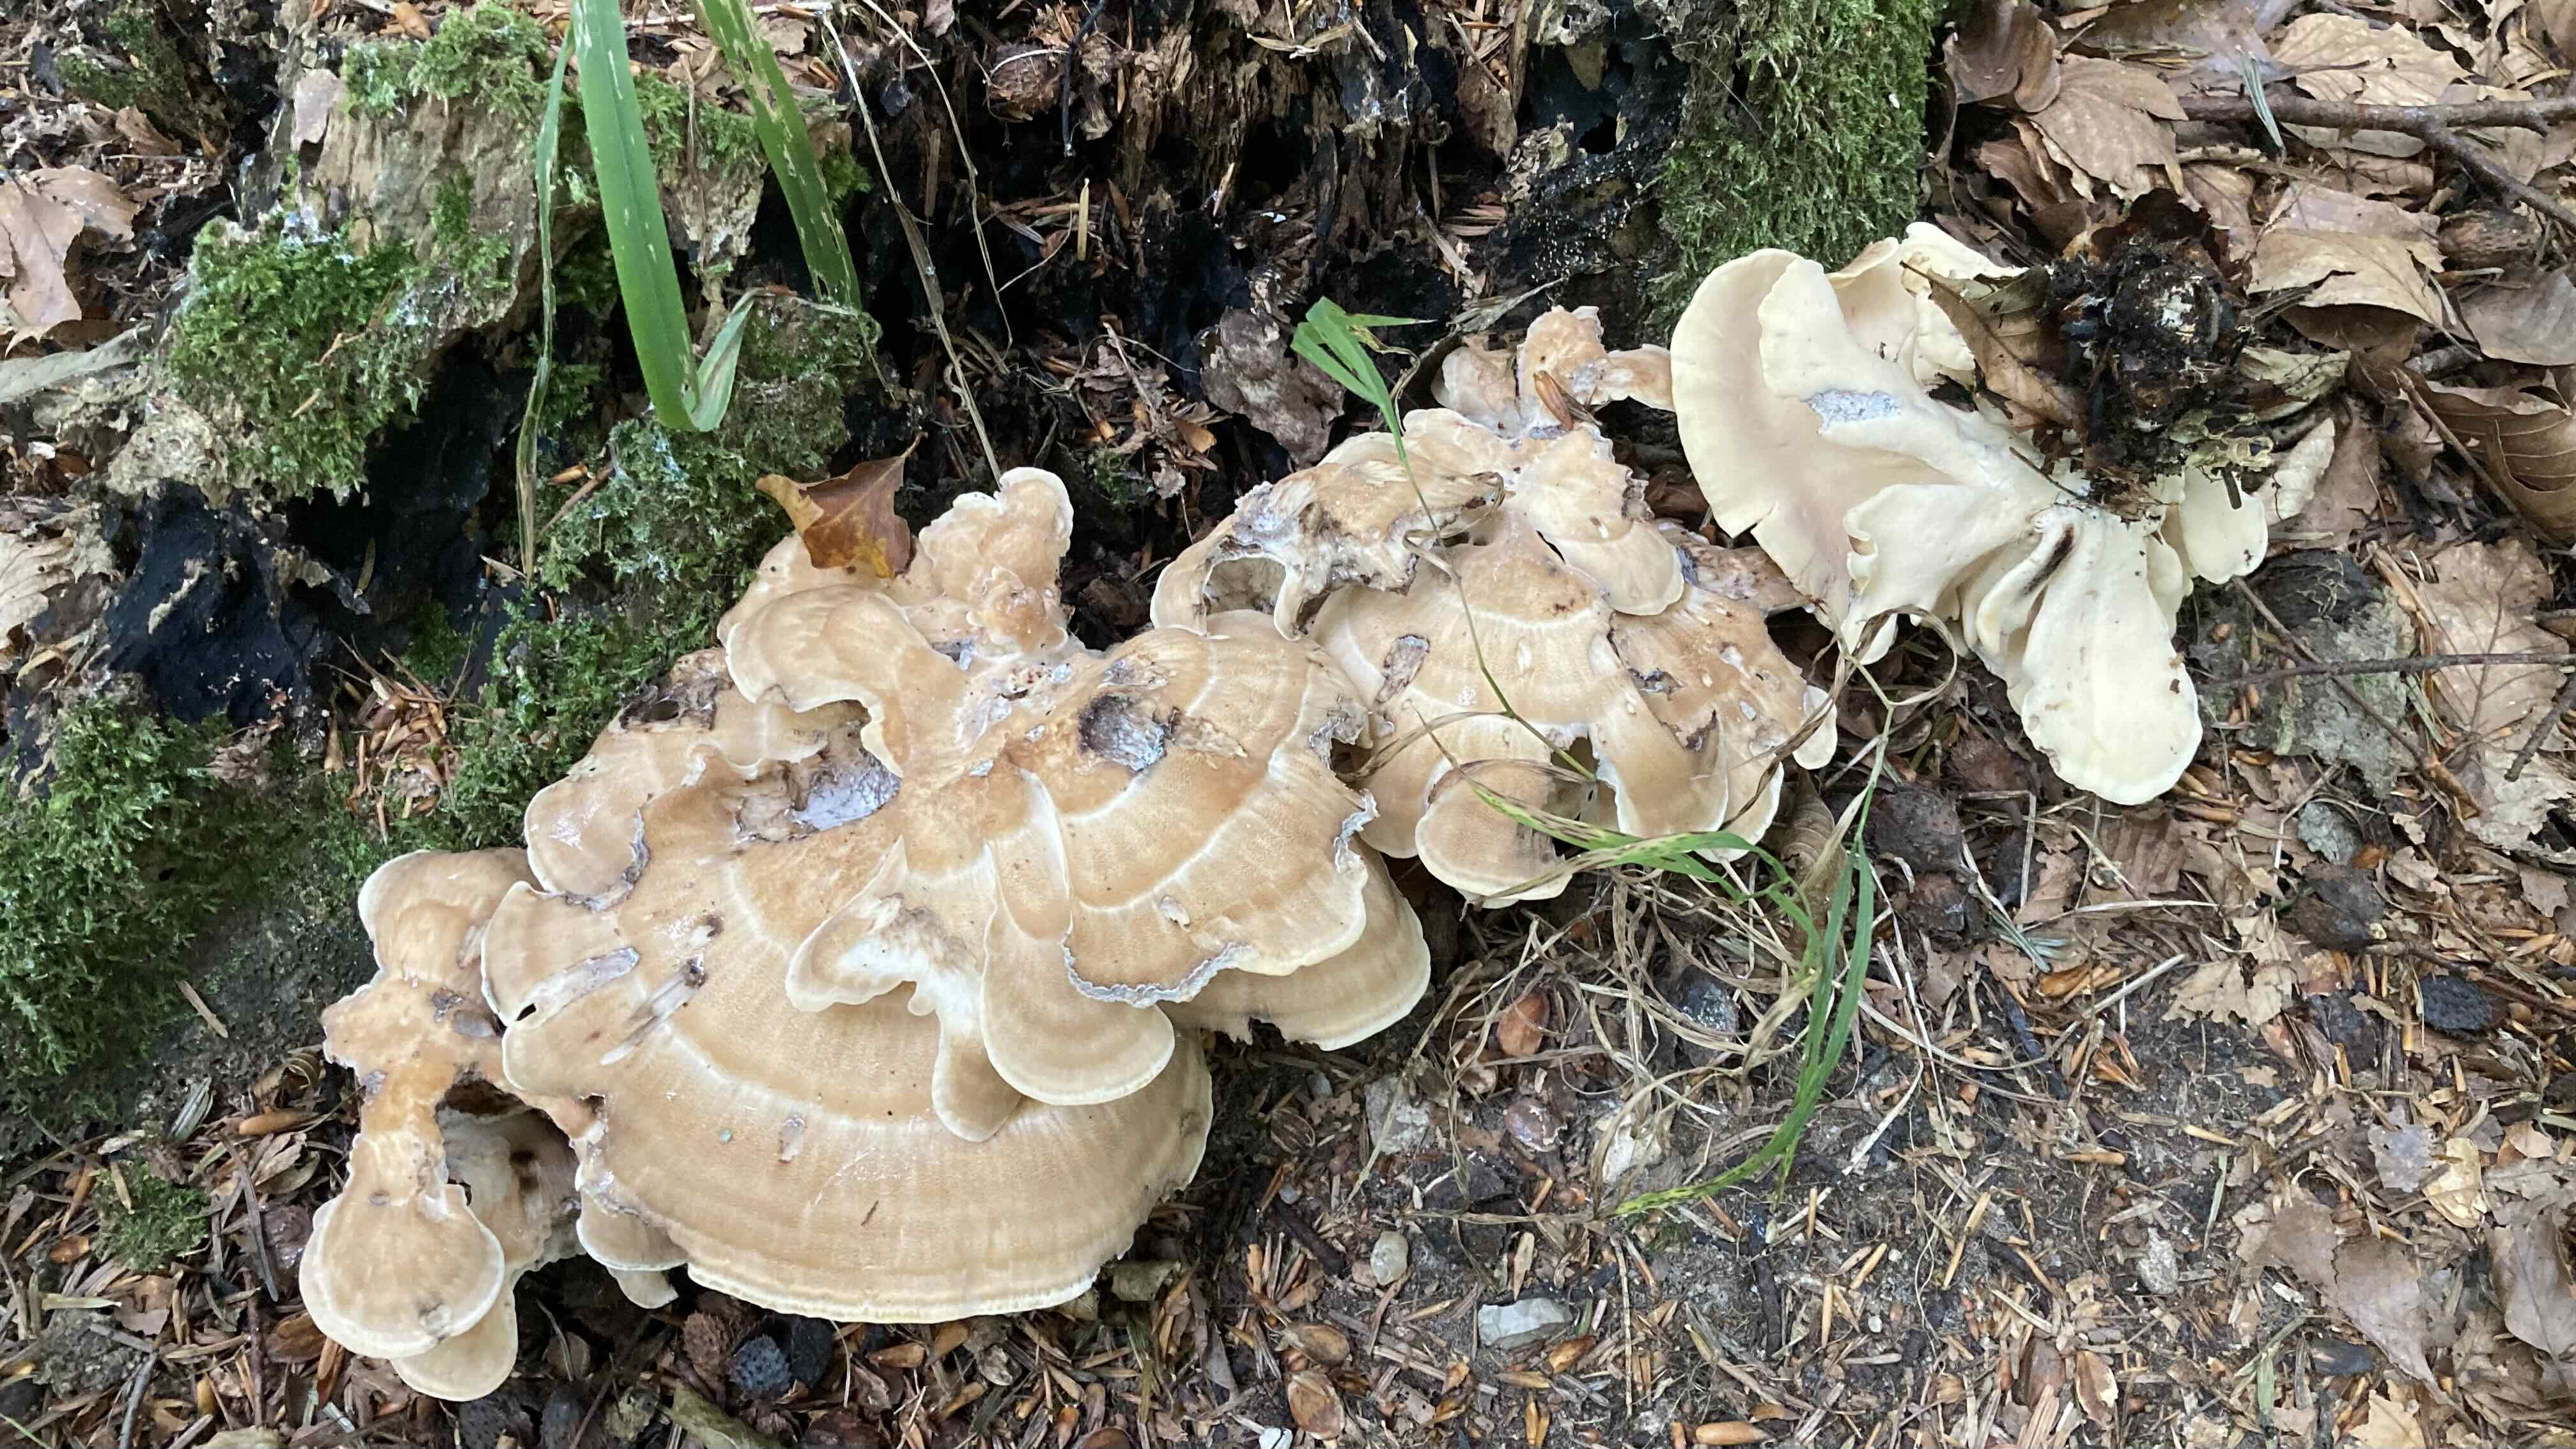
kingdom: Fungi
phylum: Basidiomycota
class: Agaricomycetes
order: Polyporales
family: Meripilaceae
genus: Meripilus
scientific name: Meripilus giganteus
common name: kæmpeporesvamp
